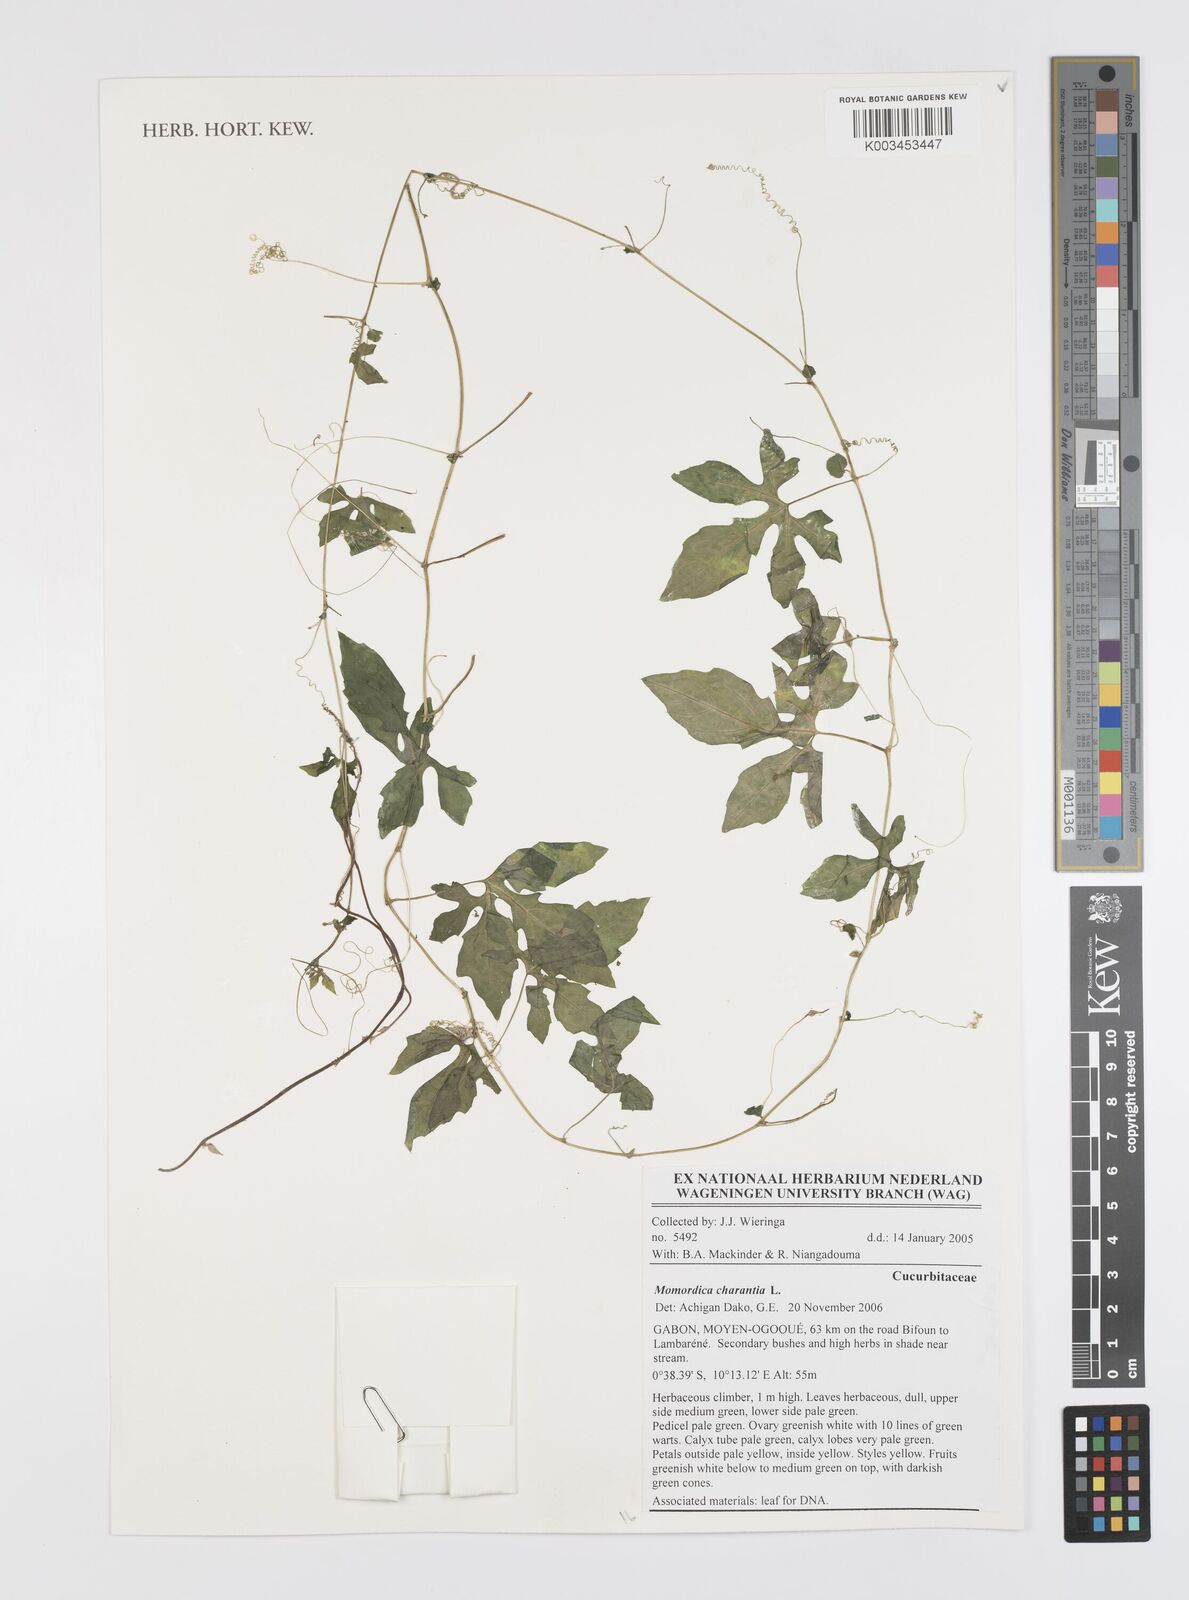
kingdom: Plantae
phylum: Tracheophyta
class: Magnoliopsida
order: Cucurbitales
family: Cucurbitaceae
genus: Momordica
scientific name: Momordica charantia
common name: Balsampear
